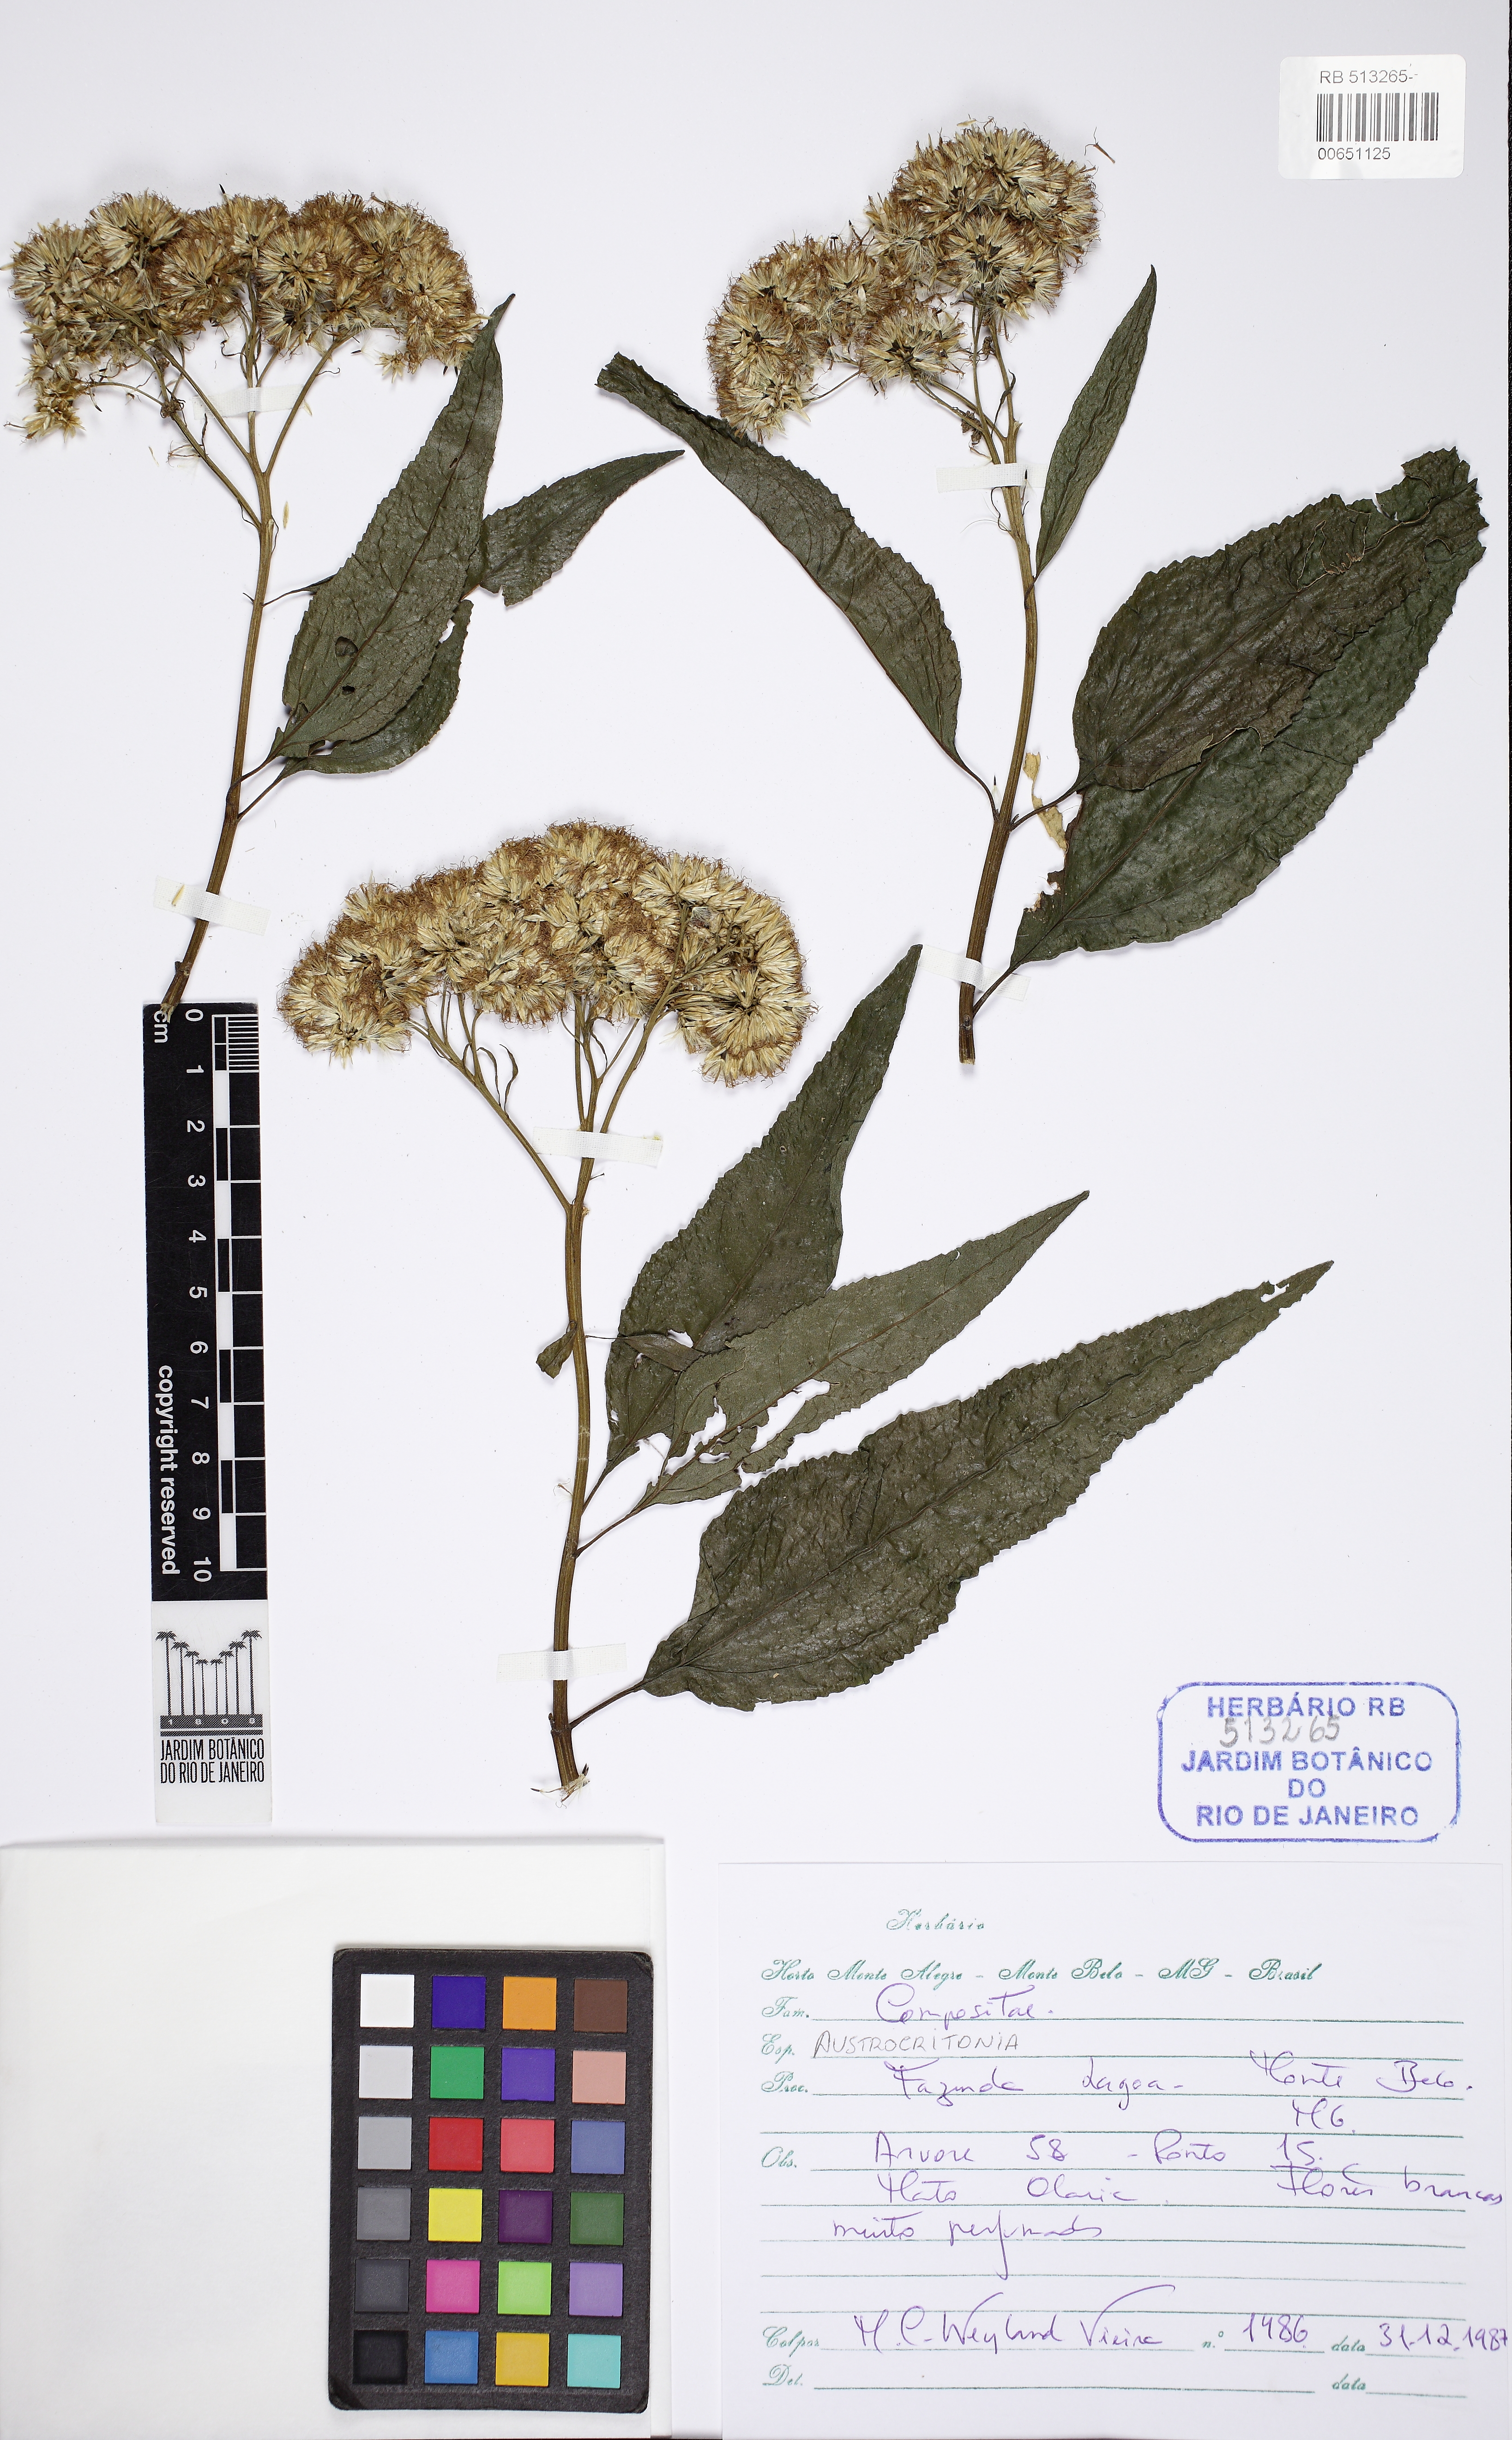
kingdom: Plantae
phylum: Tracheophyta
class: Magnoliopsida
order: Asterales
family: Asteraceae
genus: Austrocritonia
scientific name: Austrocritonia
